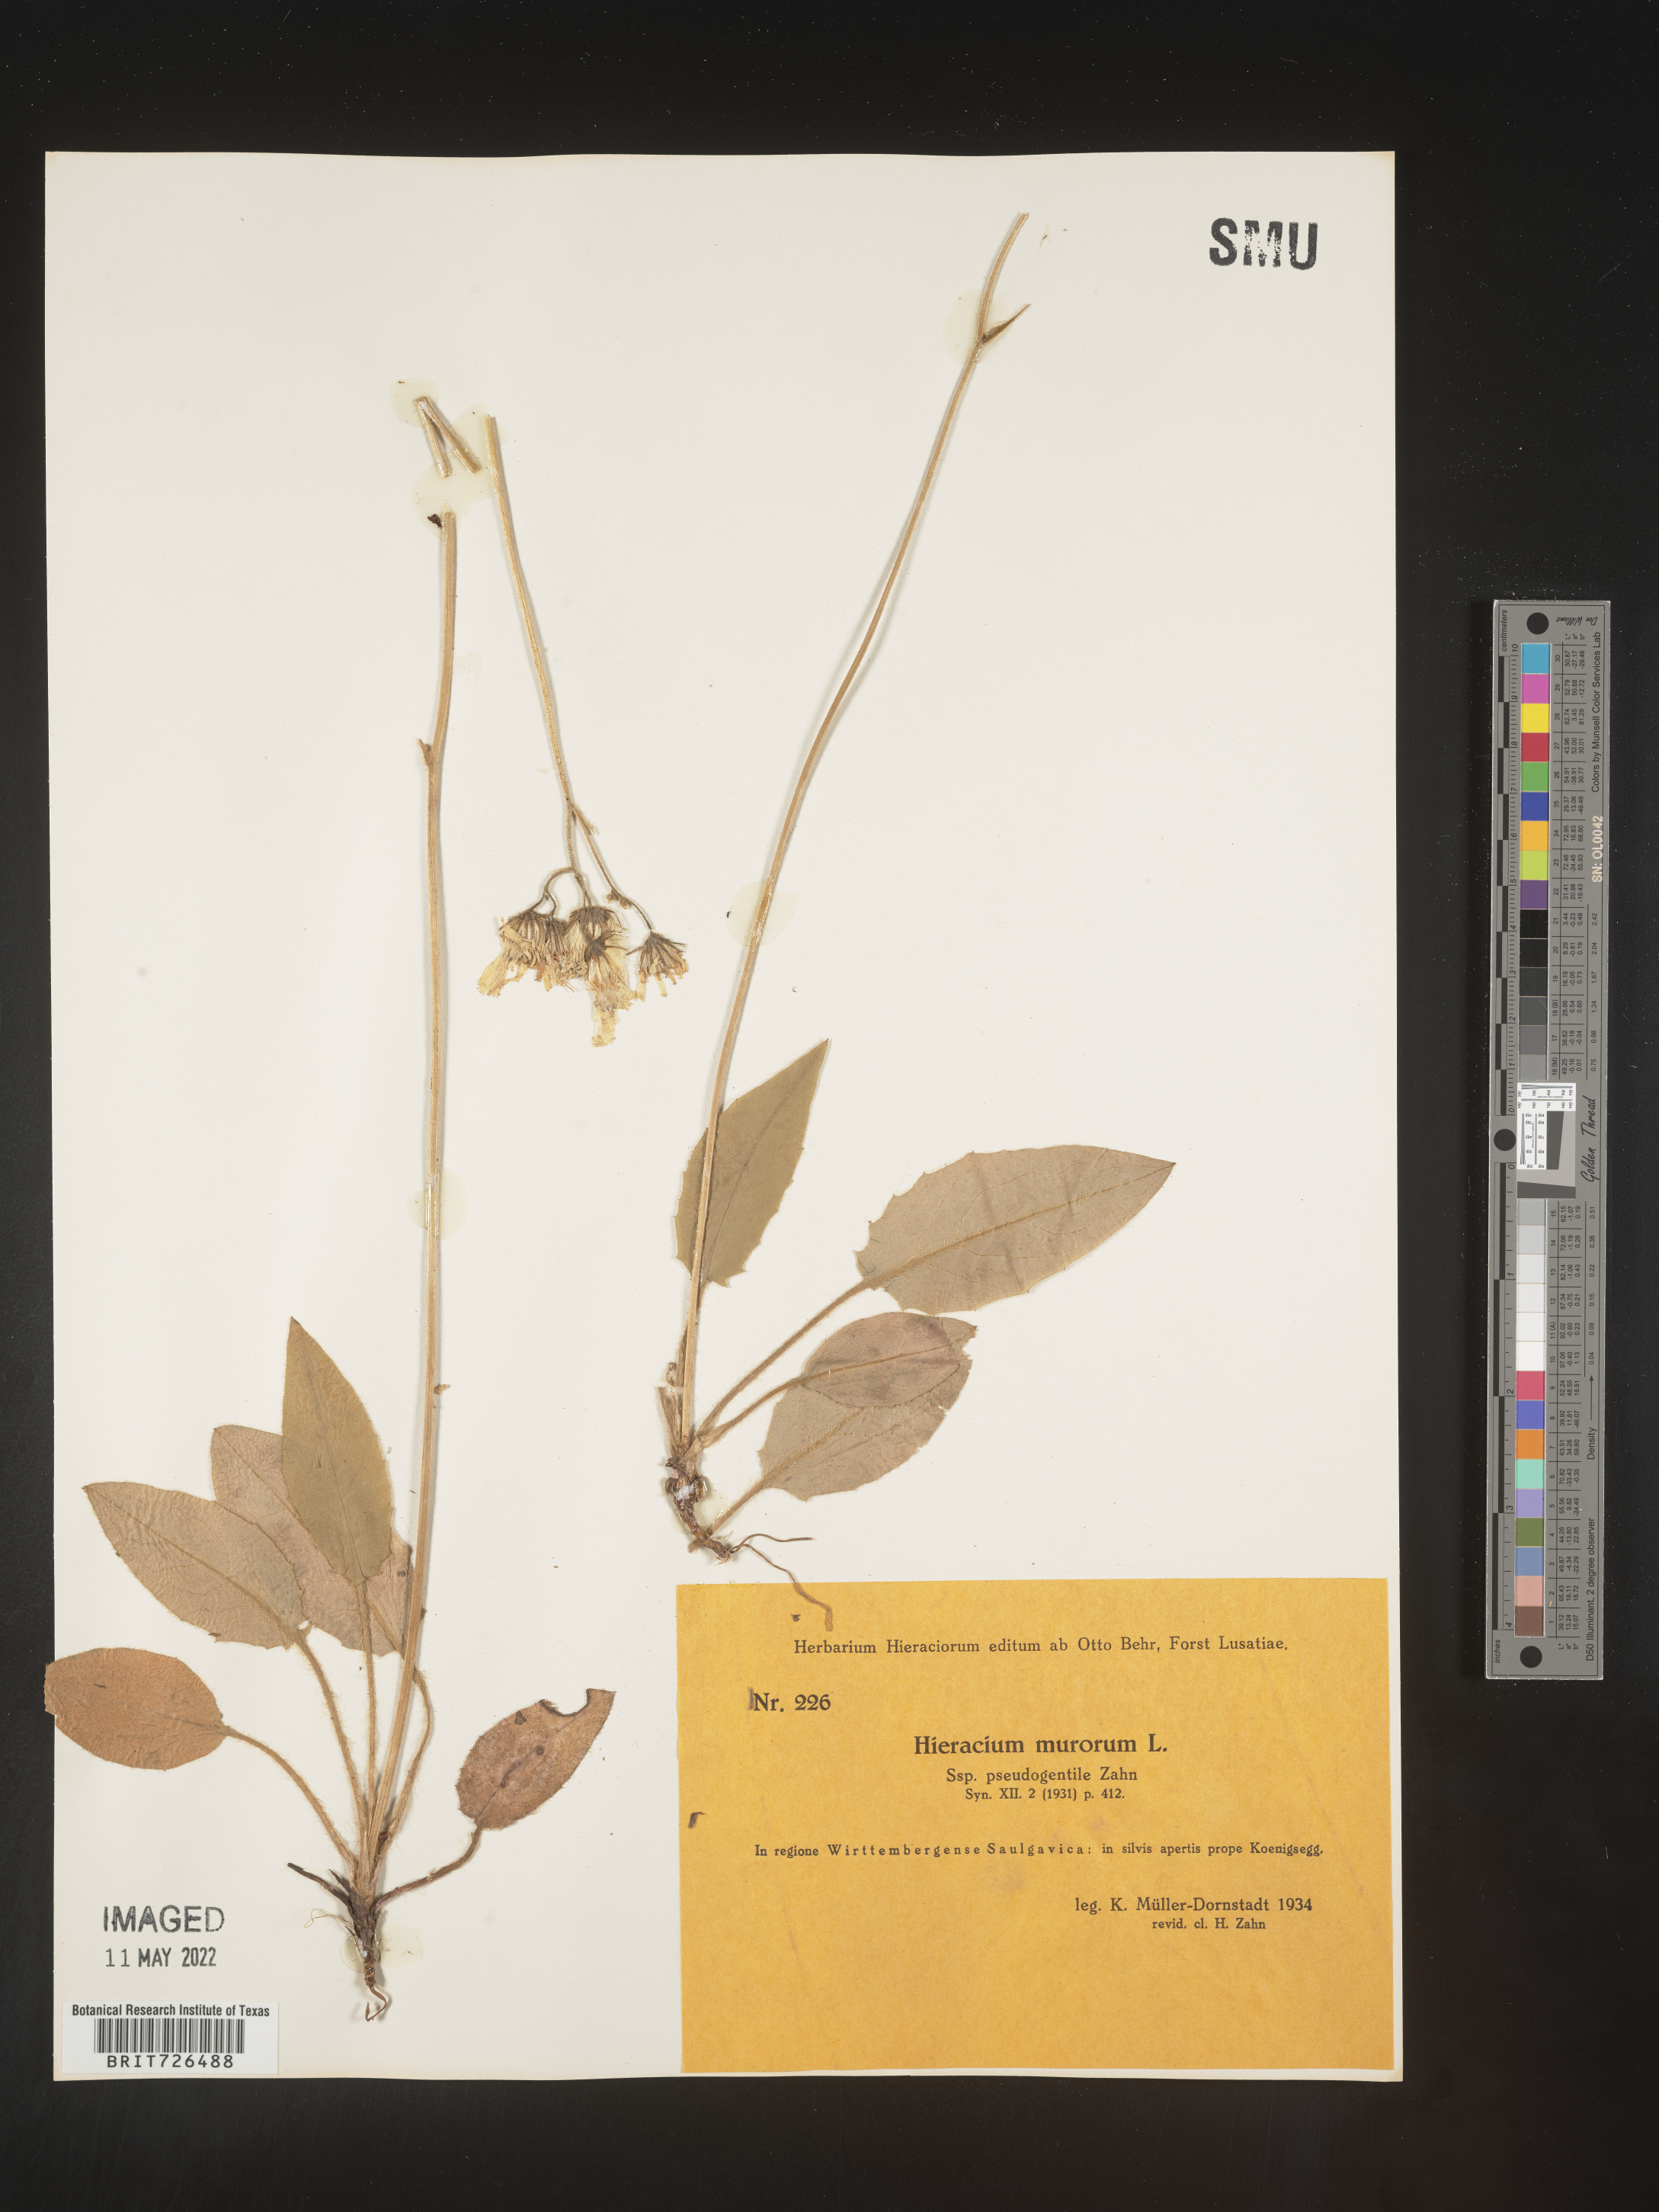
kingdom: Plantae
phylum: Tracheophyta
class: Magnoliopsida
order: Asterales
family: Asteraceae
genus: Hieracium
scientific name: Hieracium
